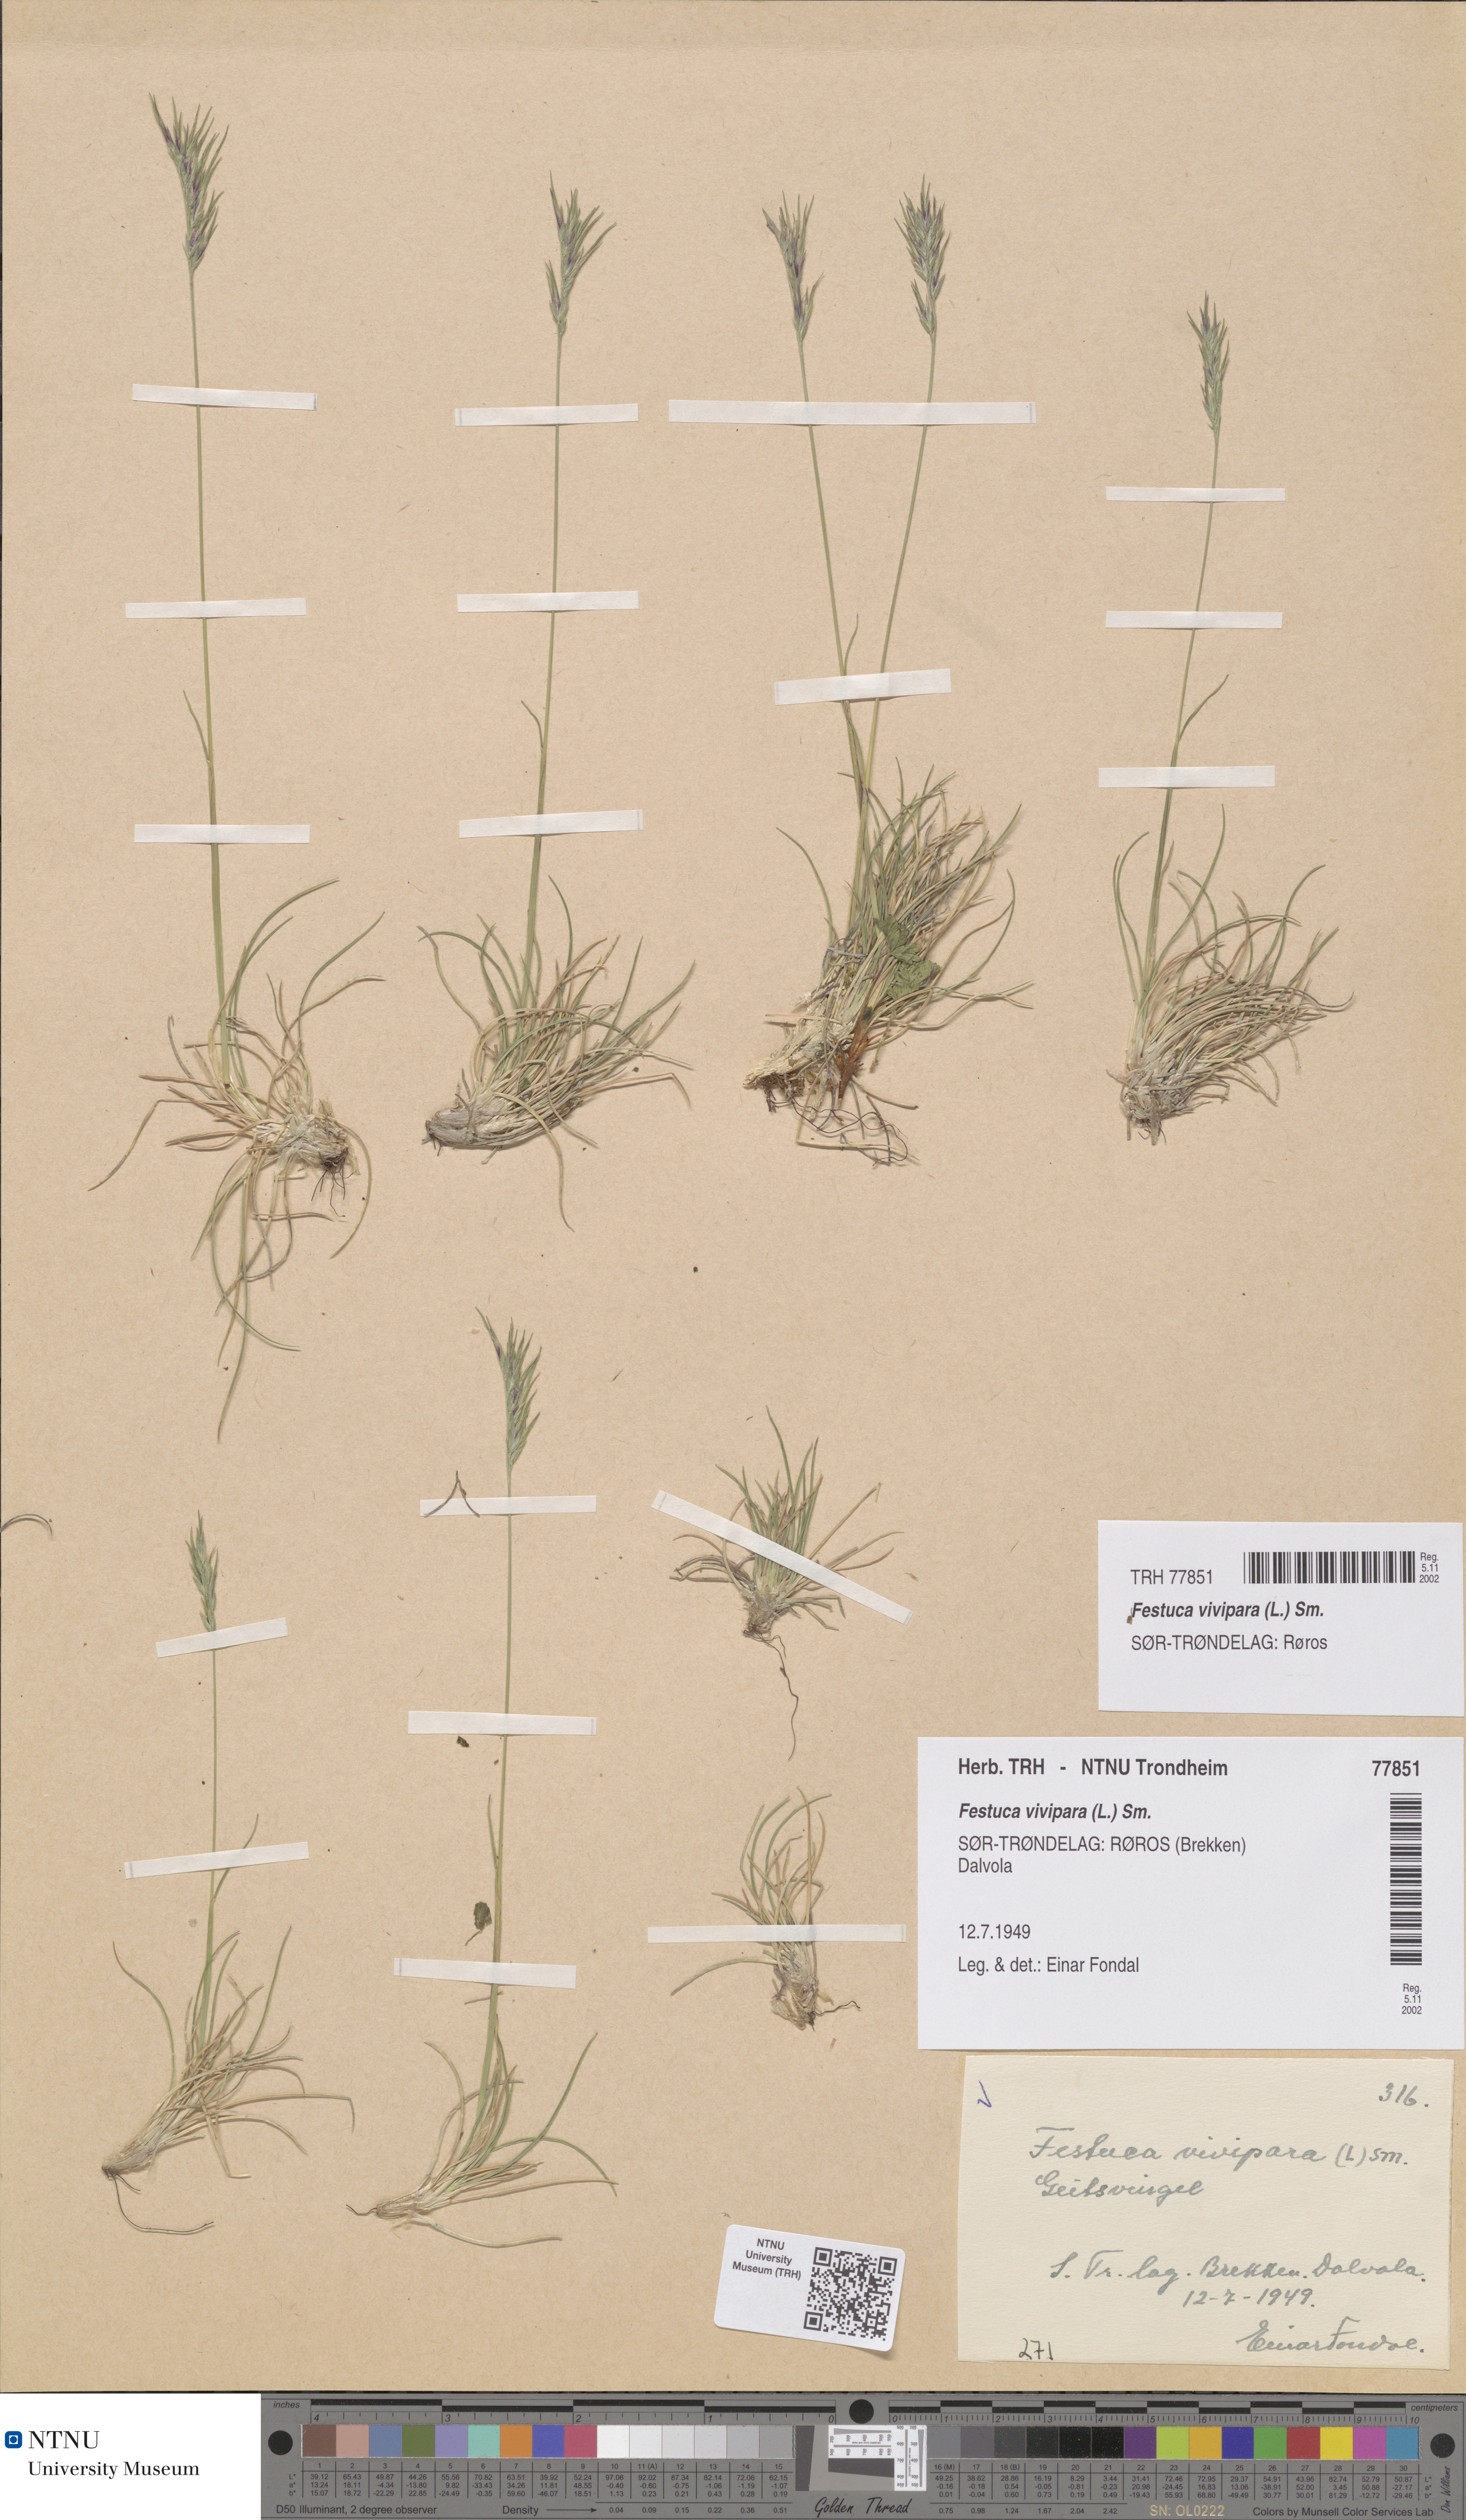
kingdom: Plantae
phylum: Tracheophyta
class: Liliopsida
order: Poales
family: Poaceae
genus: Festuca
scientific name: Festuca vivipara
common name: Viviparous sheep's-fescue
